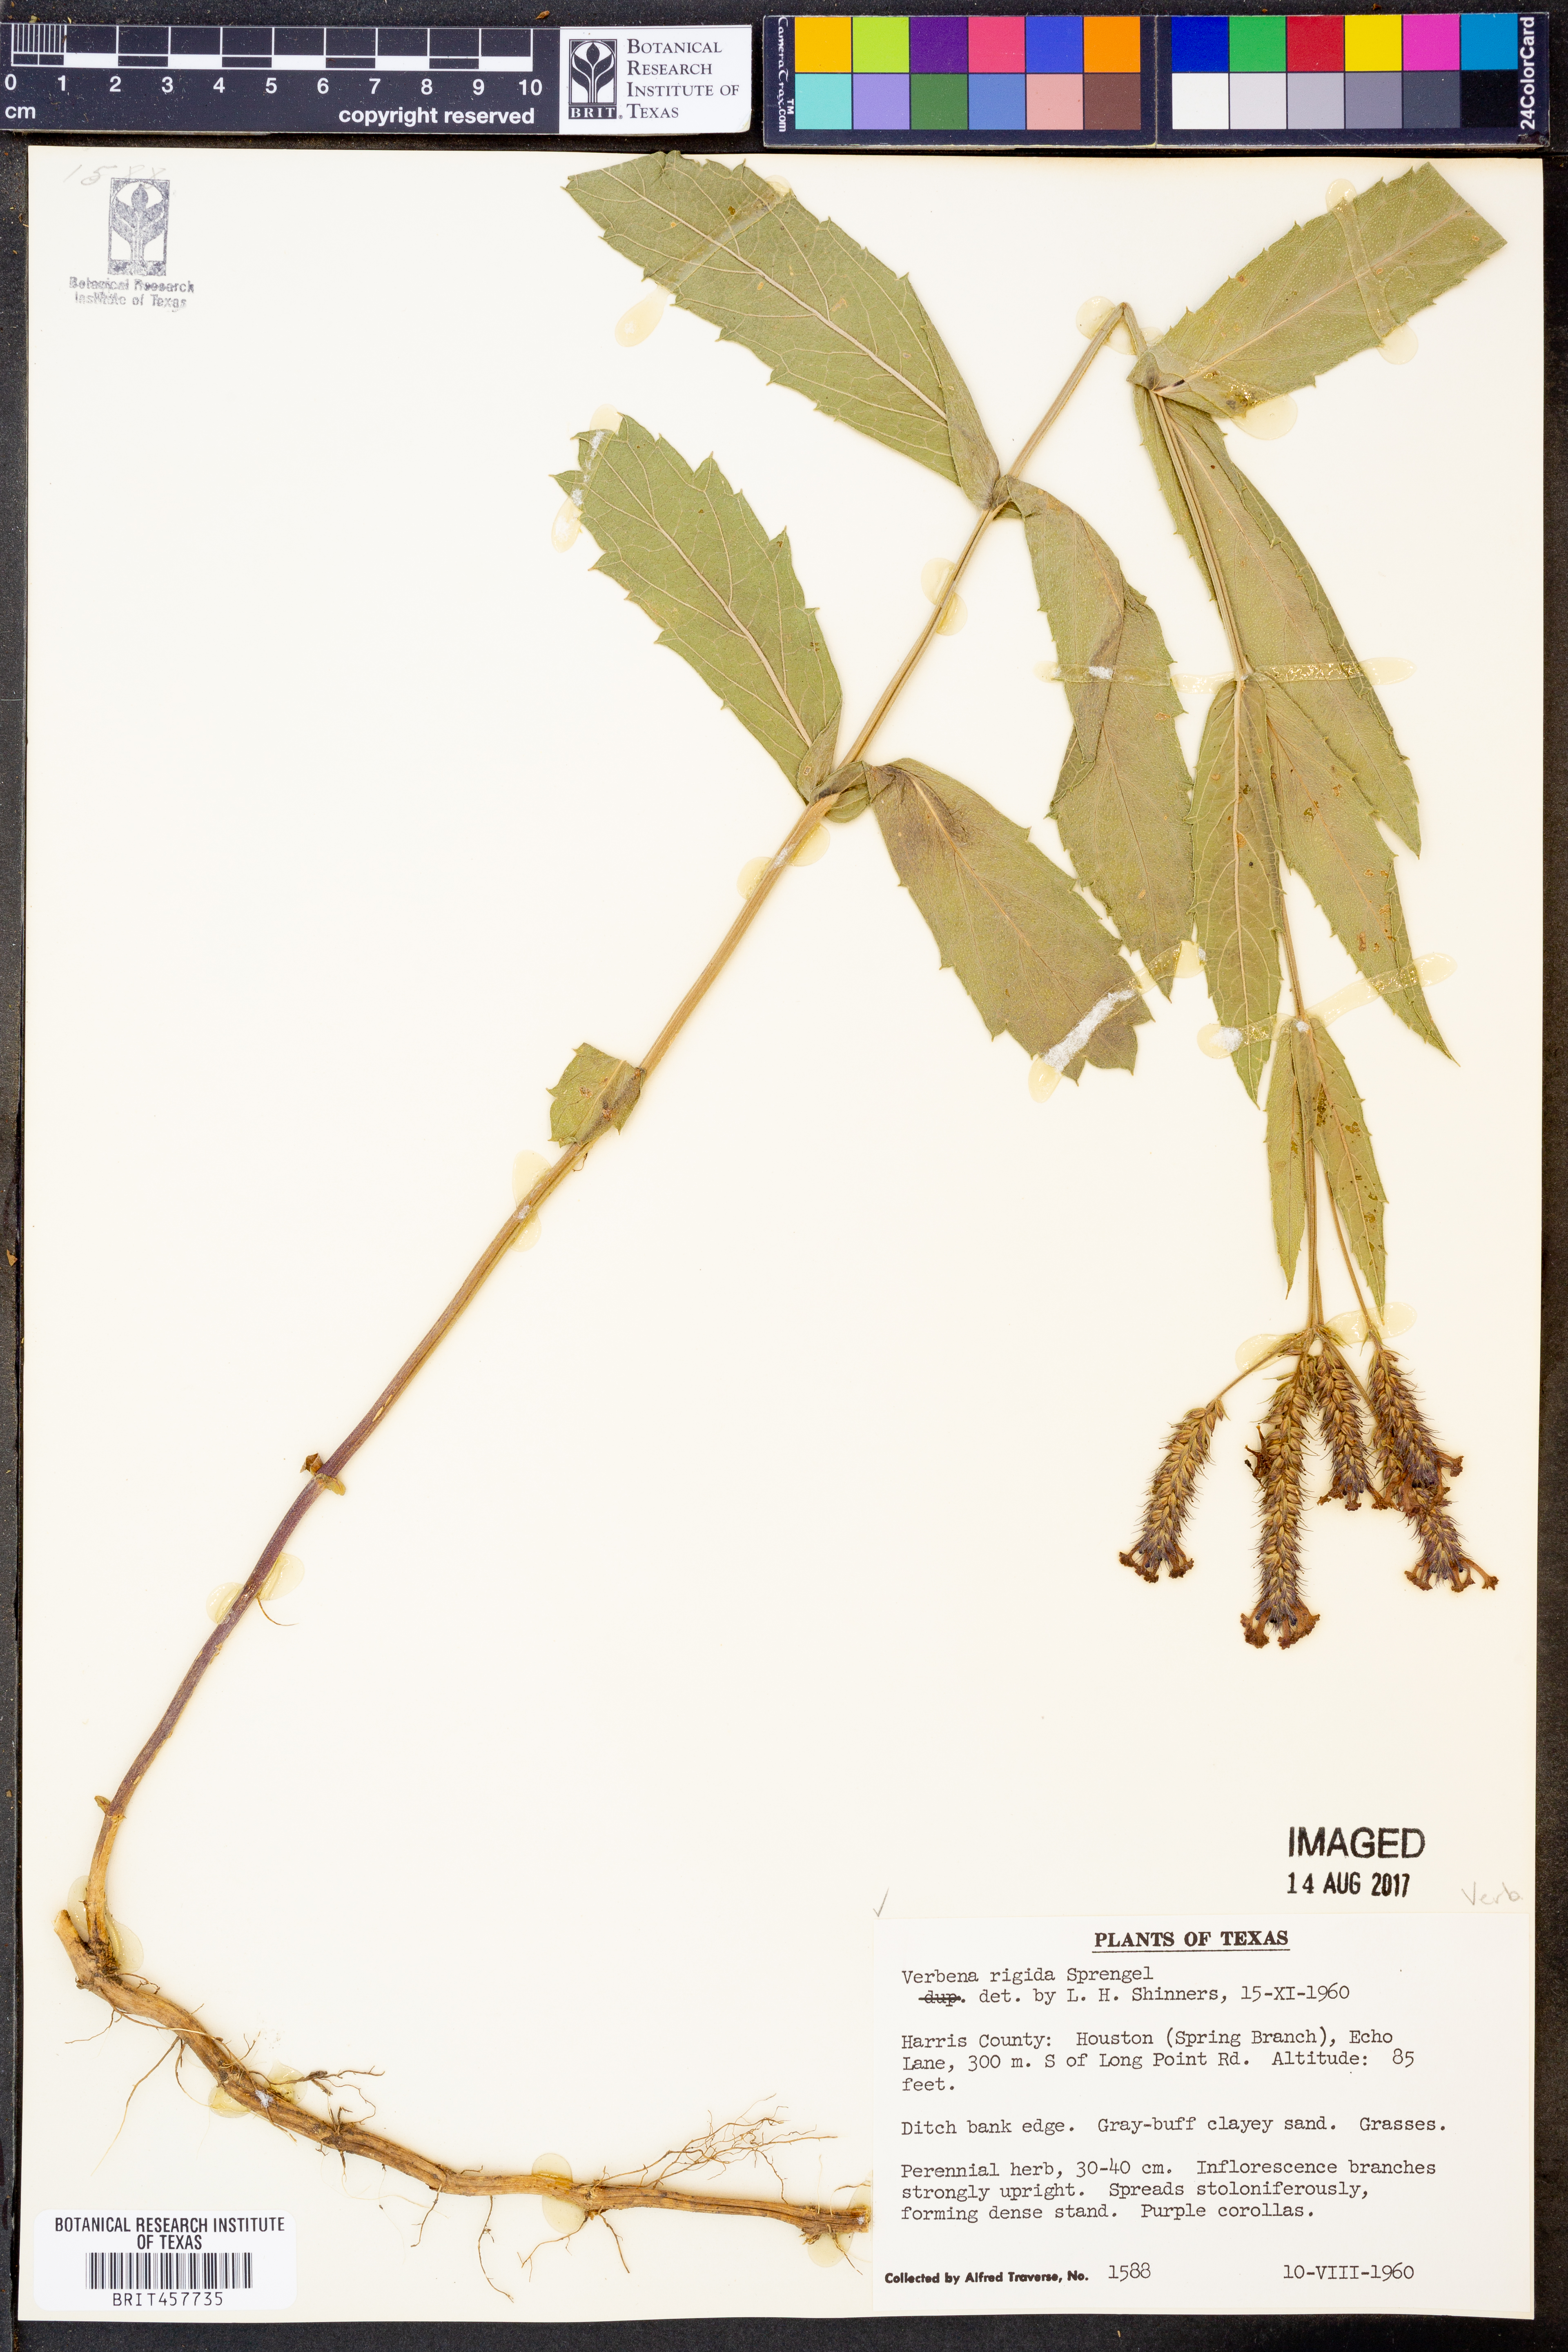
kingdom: Plantae
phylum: Tracheophyta
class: Magnoliopsida
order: Lamiales
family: Verbenaceae
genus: Verbena
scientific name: Verbena rigida
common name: Slender vervain
